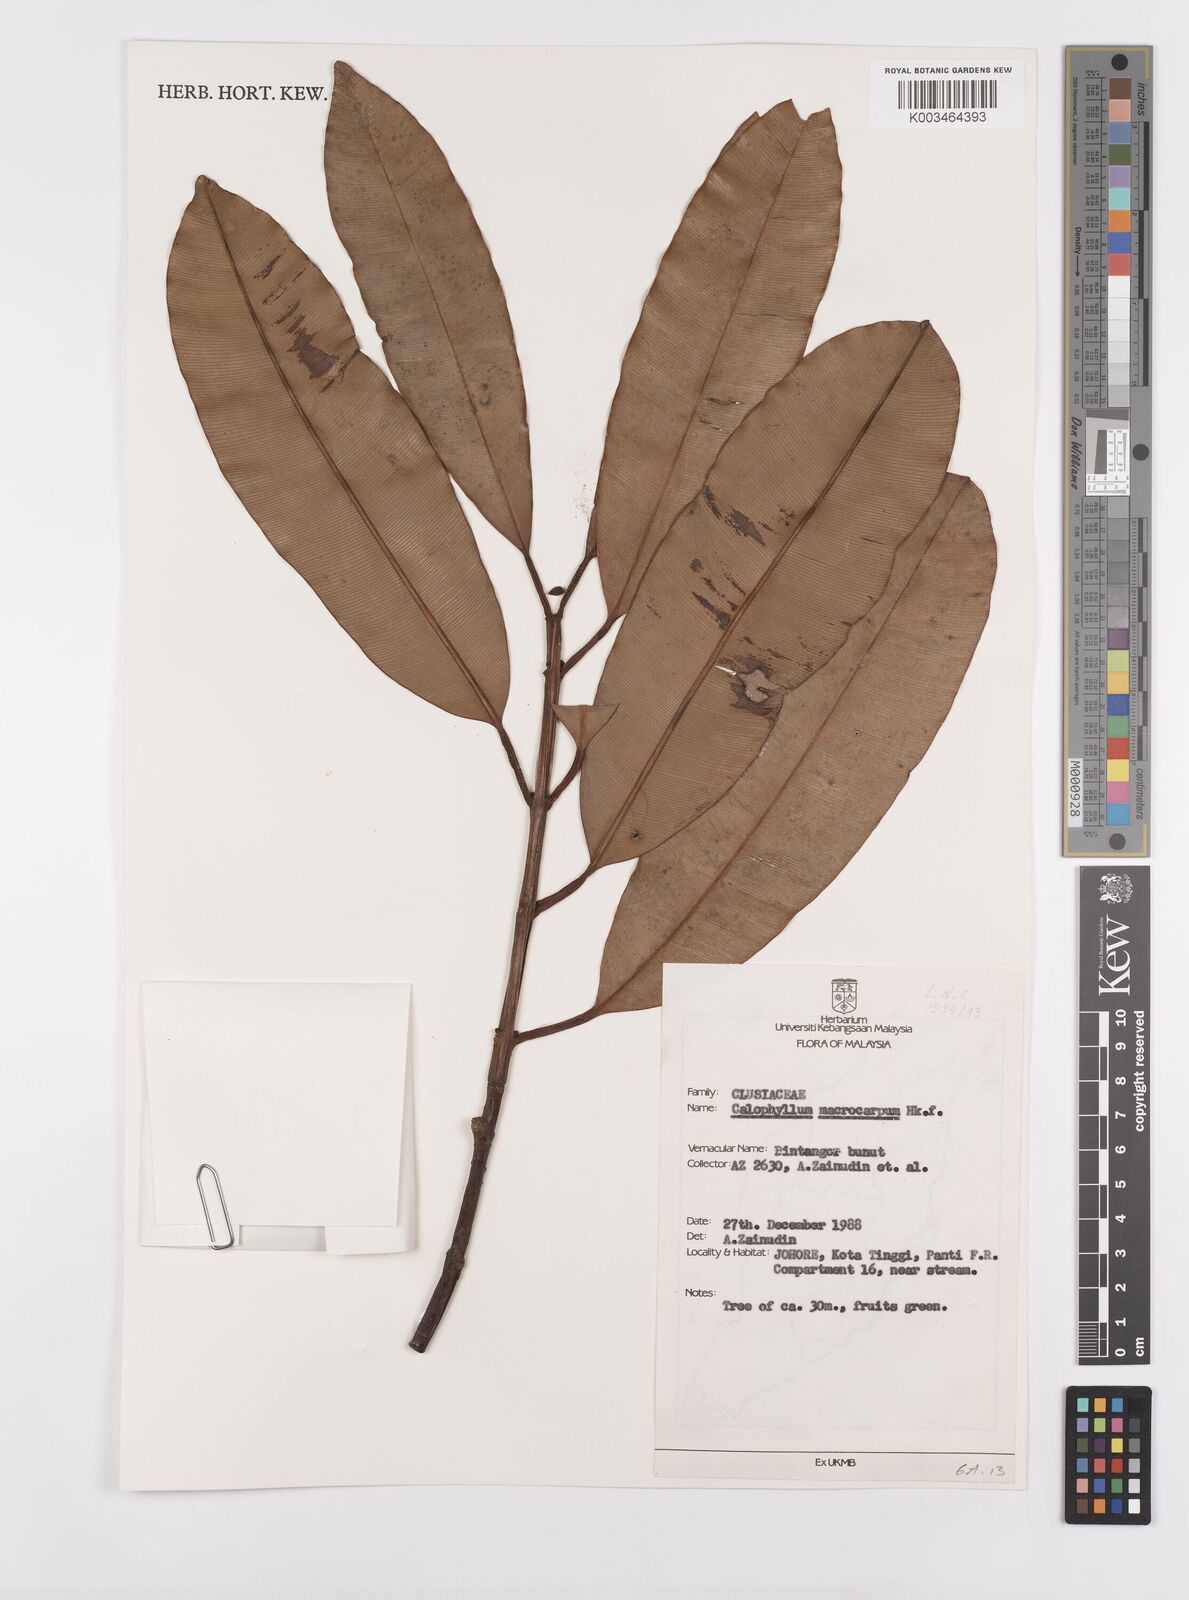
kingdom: Plantae
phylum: Tracheophyta
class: Magnoliopsida
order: Malpighiales
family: Calophyllaceae
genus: Calophyllum
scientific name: Calophyllum macrocarpum
